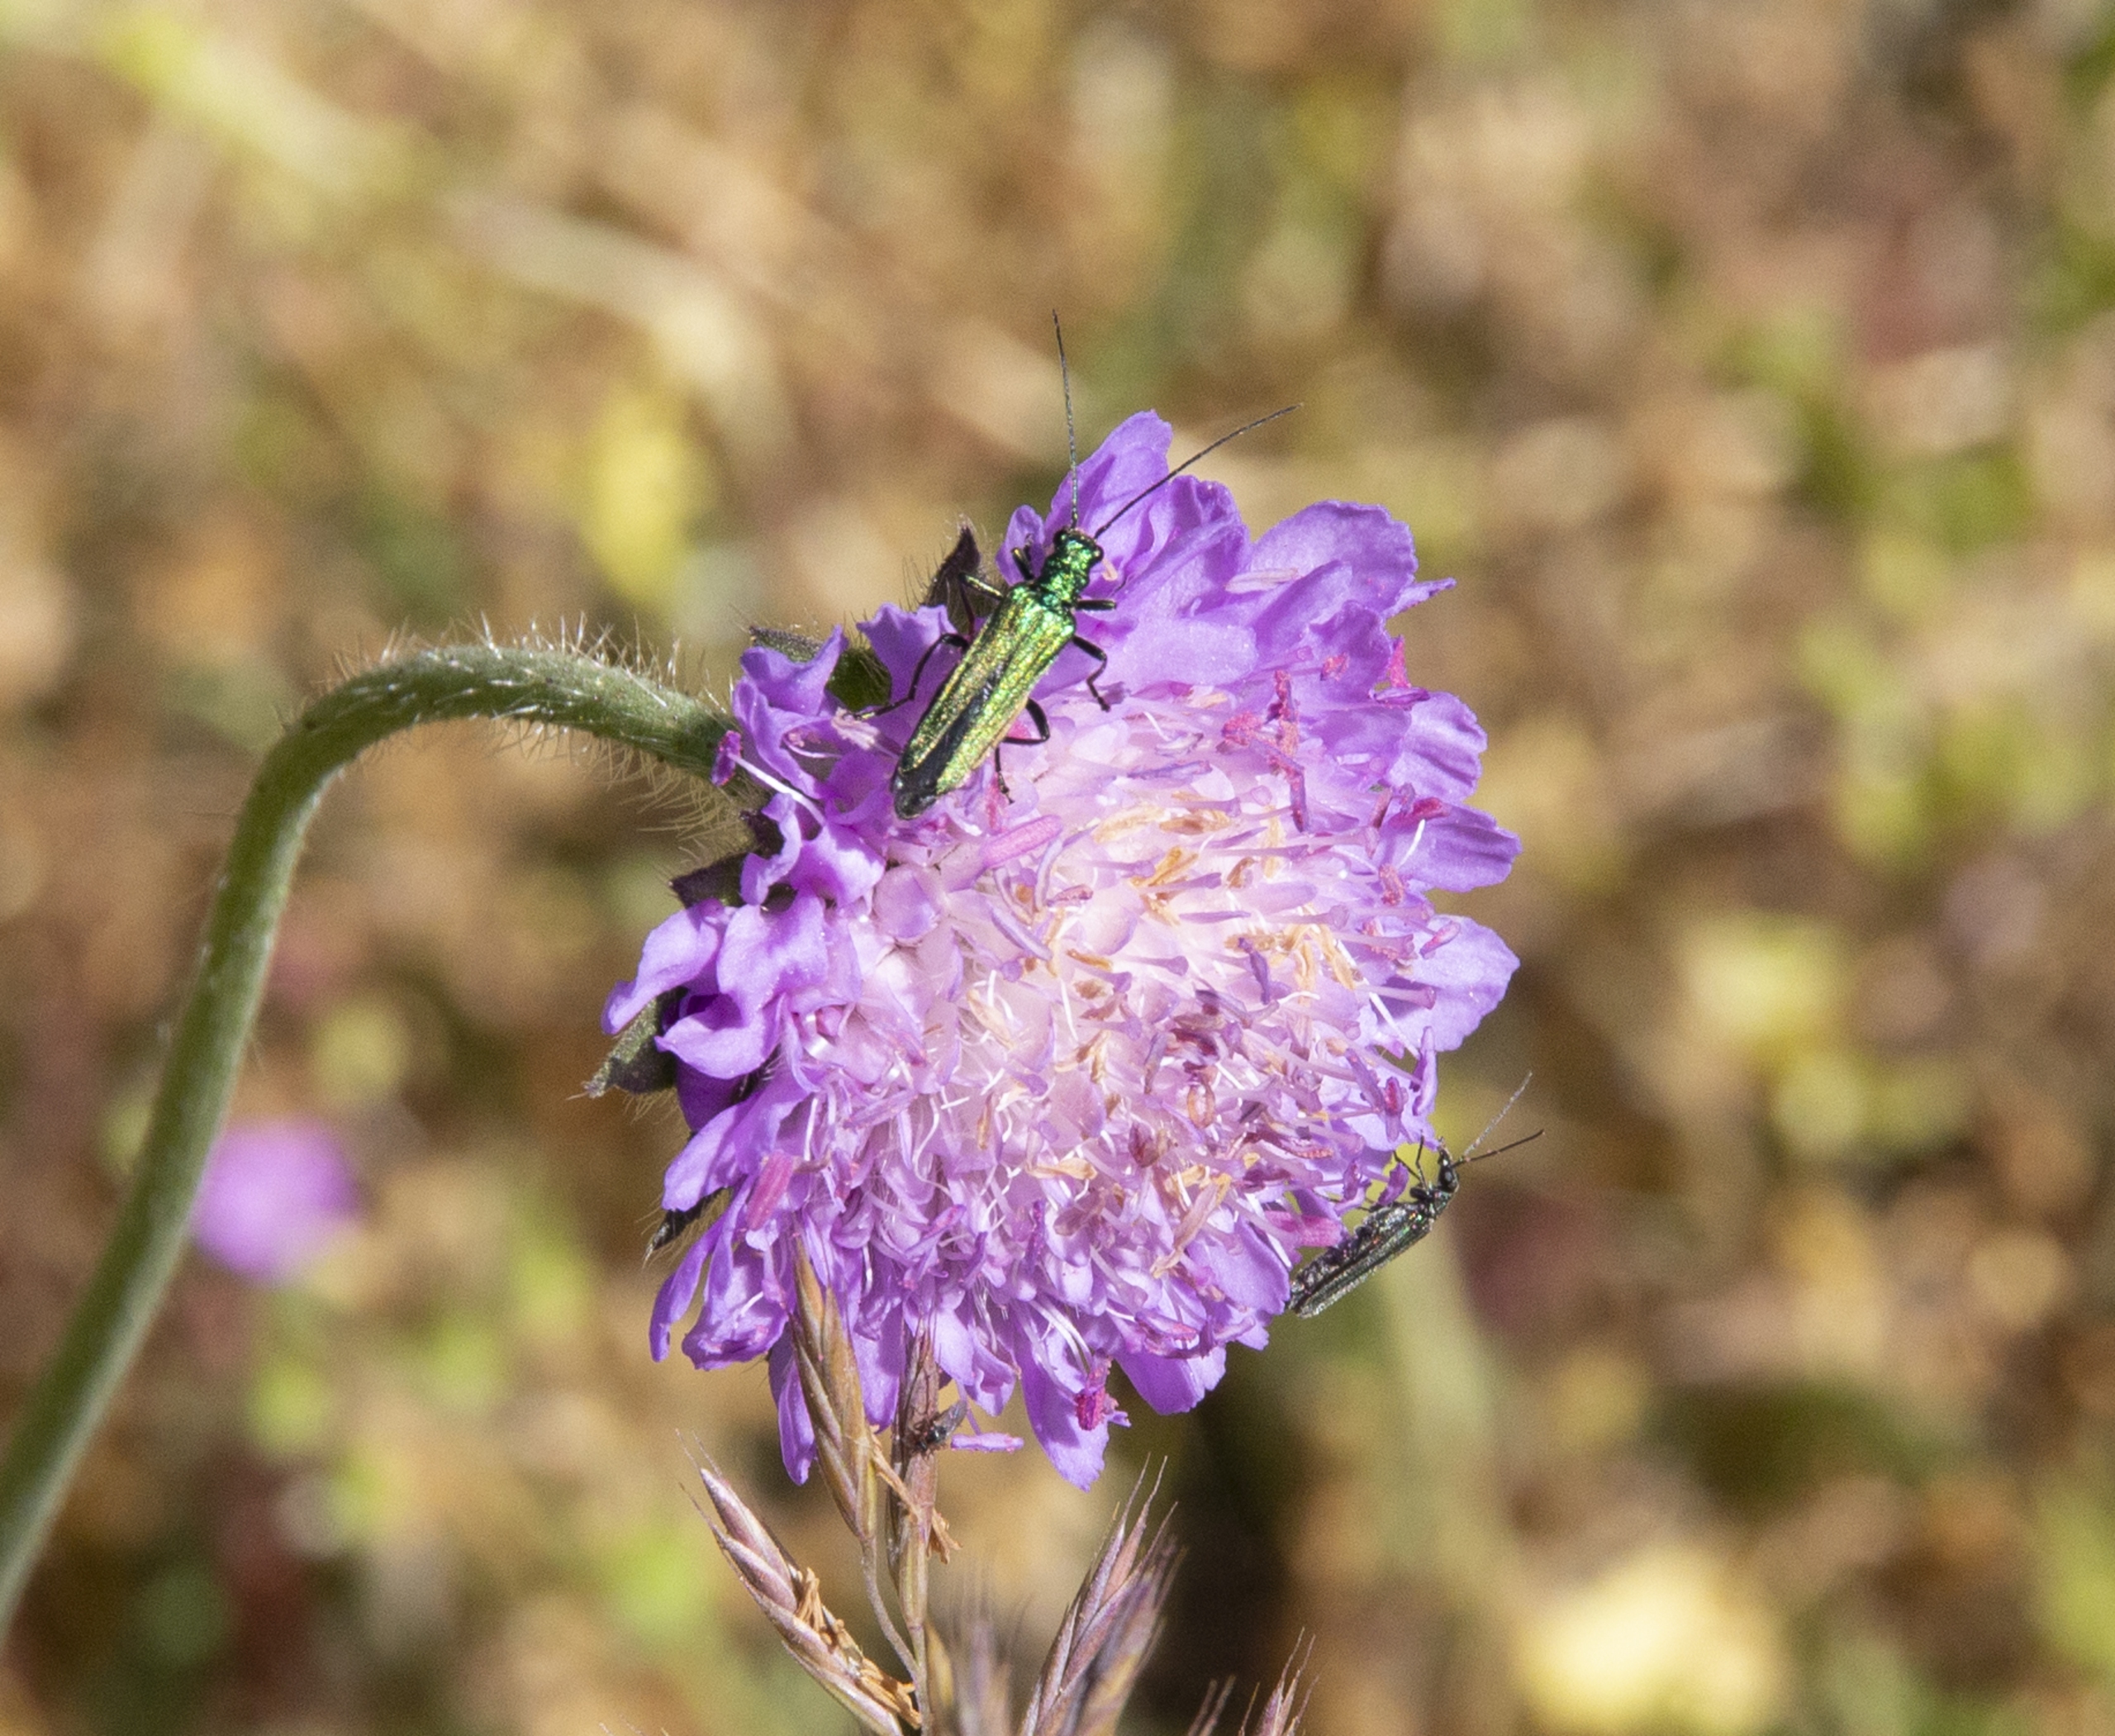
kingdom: Plantae
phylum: Tracheophyta
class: Magnoliopsida
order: Dipsacales
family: Caprifoliaceae
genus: Knautia
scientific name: Knautia arvensis
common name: Blåhat
